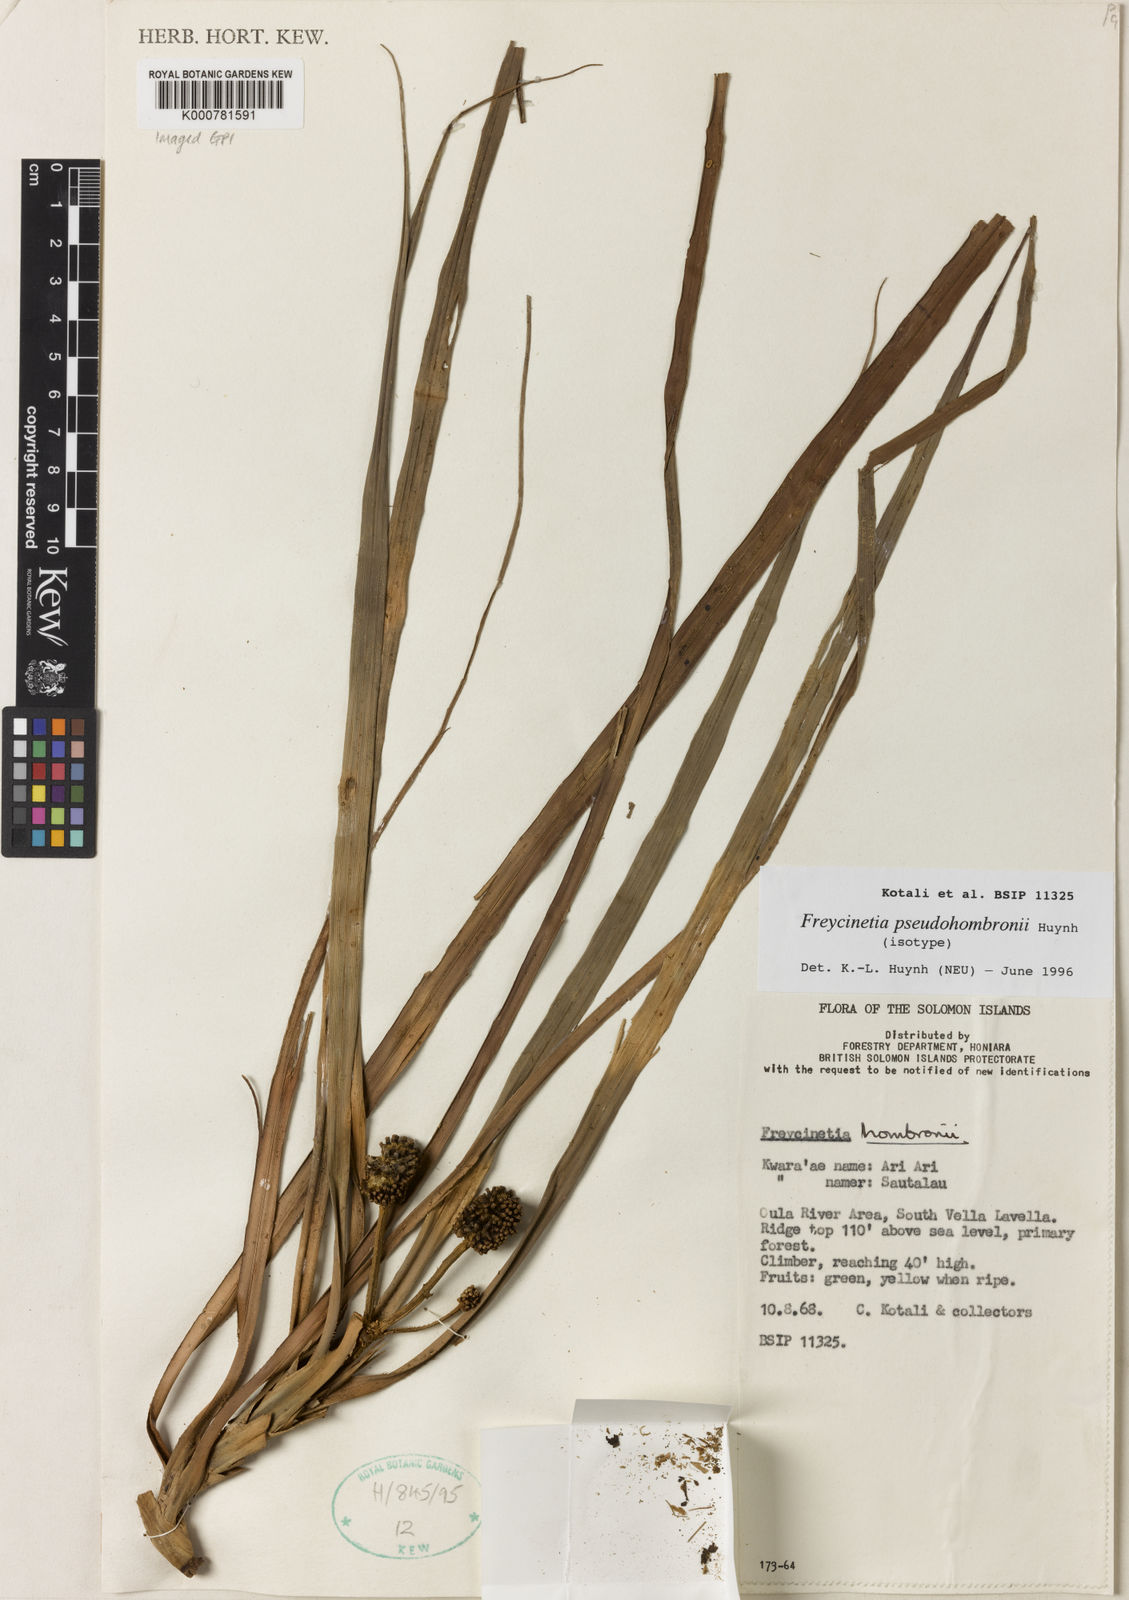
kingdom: Plantae
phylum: Tracheophyta
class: Liliopsida
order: Pandanales
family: Pandanaceae
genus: Freycinetia
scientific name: Freycinetia pseudohombronii
